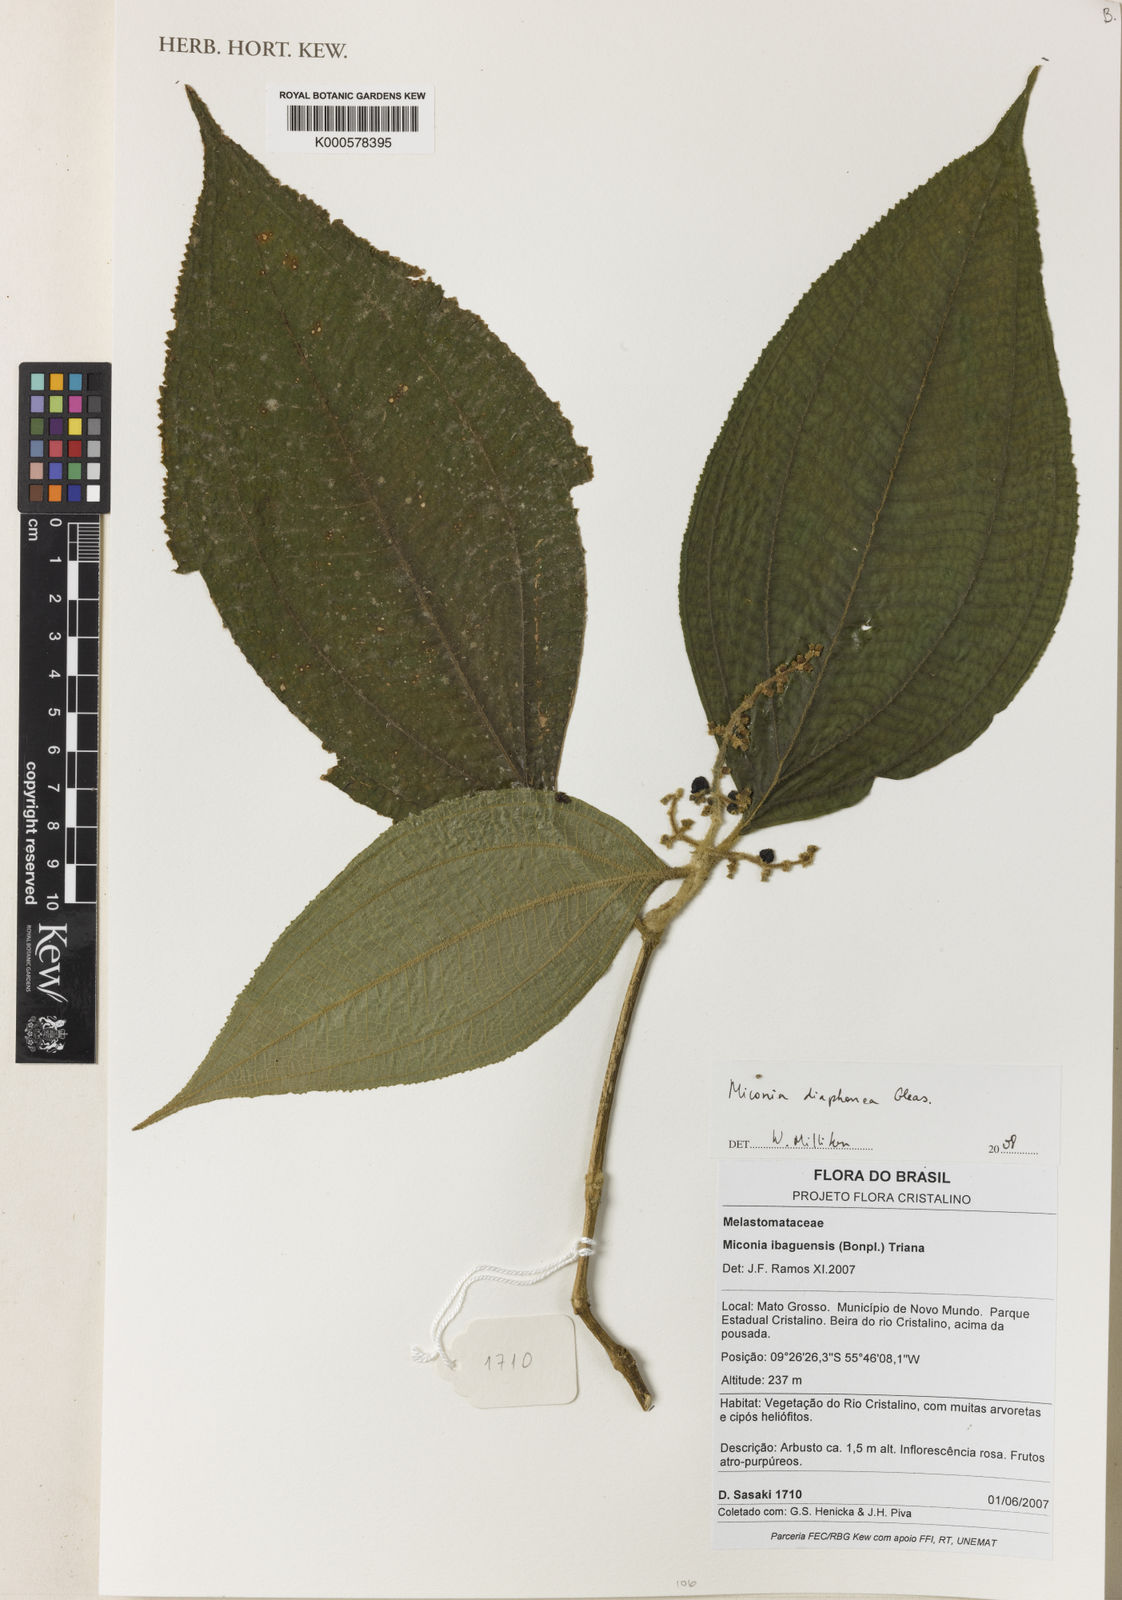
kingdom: Plantae
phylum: Tracheophyta
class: Magnoliopsida
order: Myrtales
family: Melastomataceae
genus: Miconia
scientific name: Miconia diaphanea
